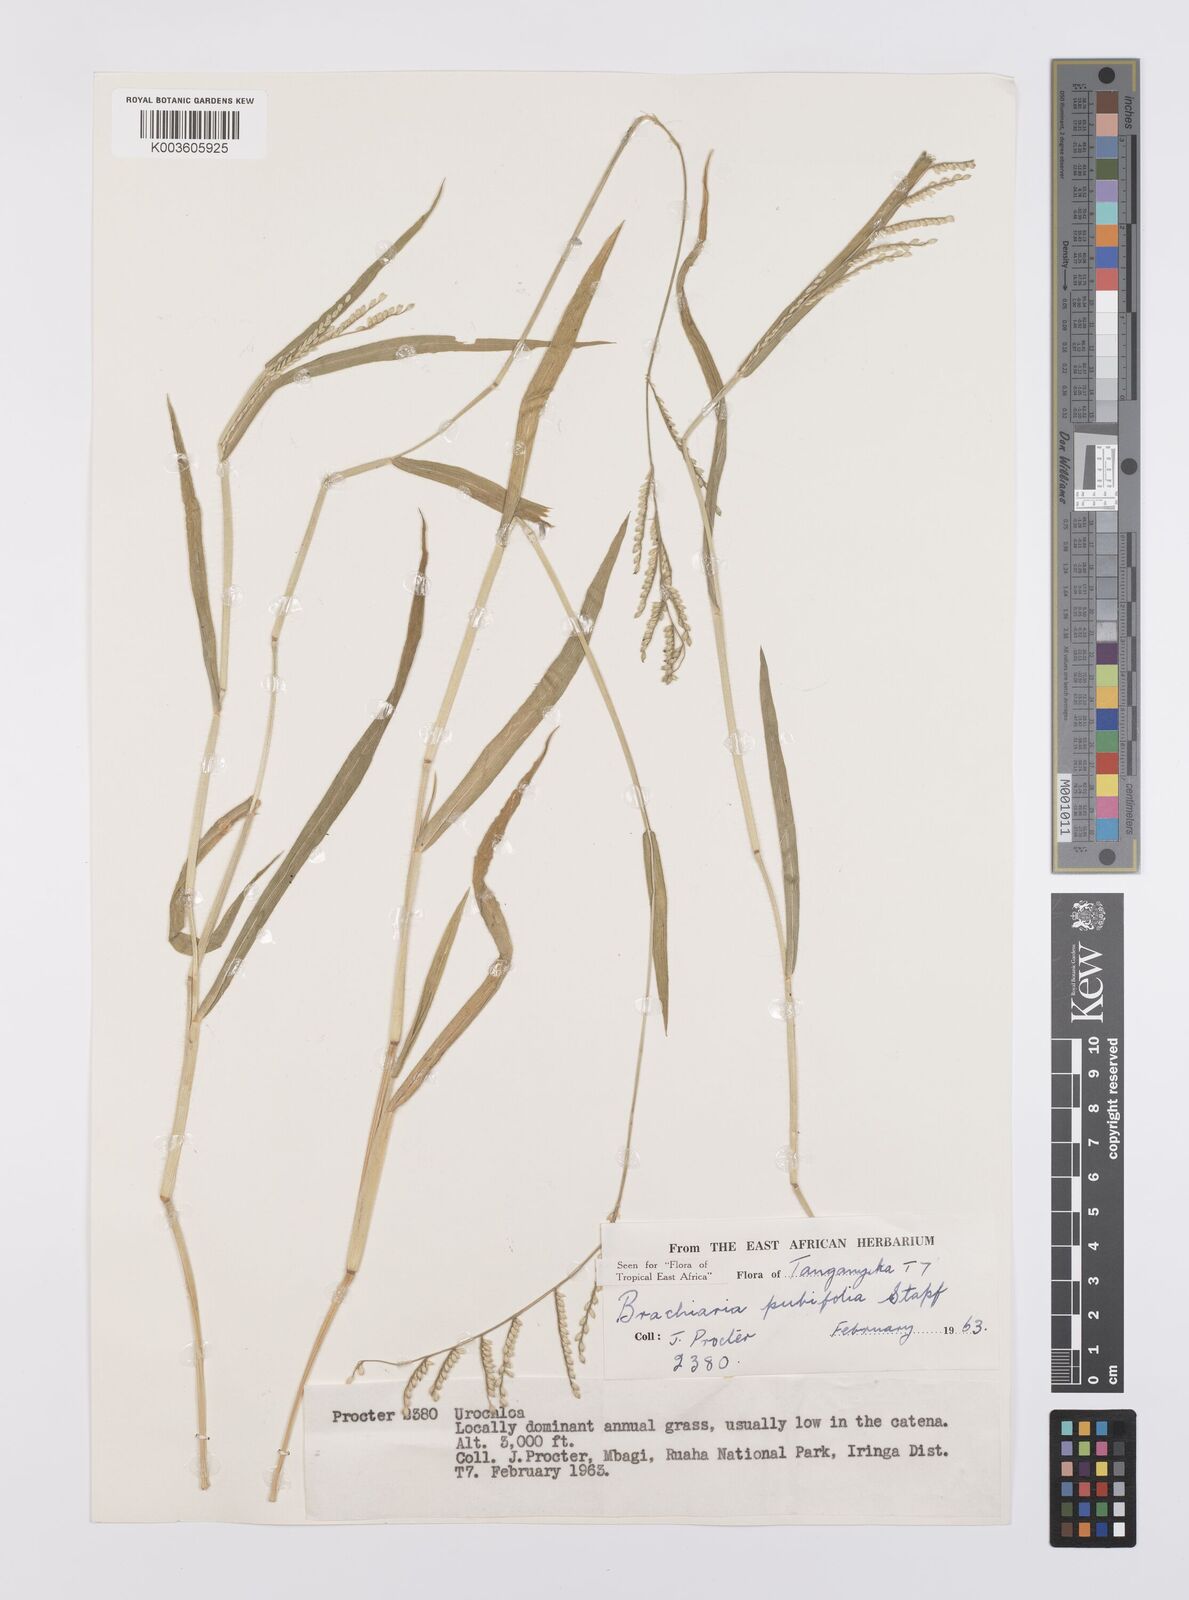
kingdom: Plantae
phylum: Tracheophyta
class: Liliopsida
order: Poales
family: Poaceae
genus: Urochloa
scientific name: Urochloa xantholeuca
